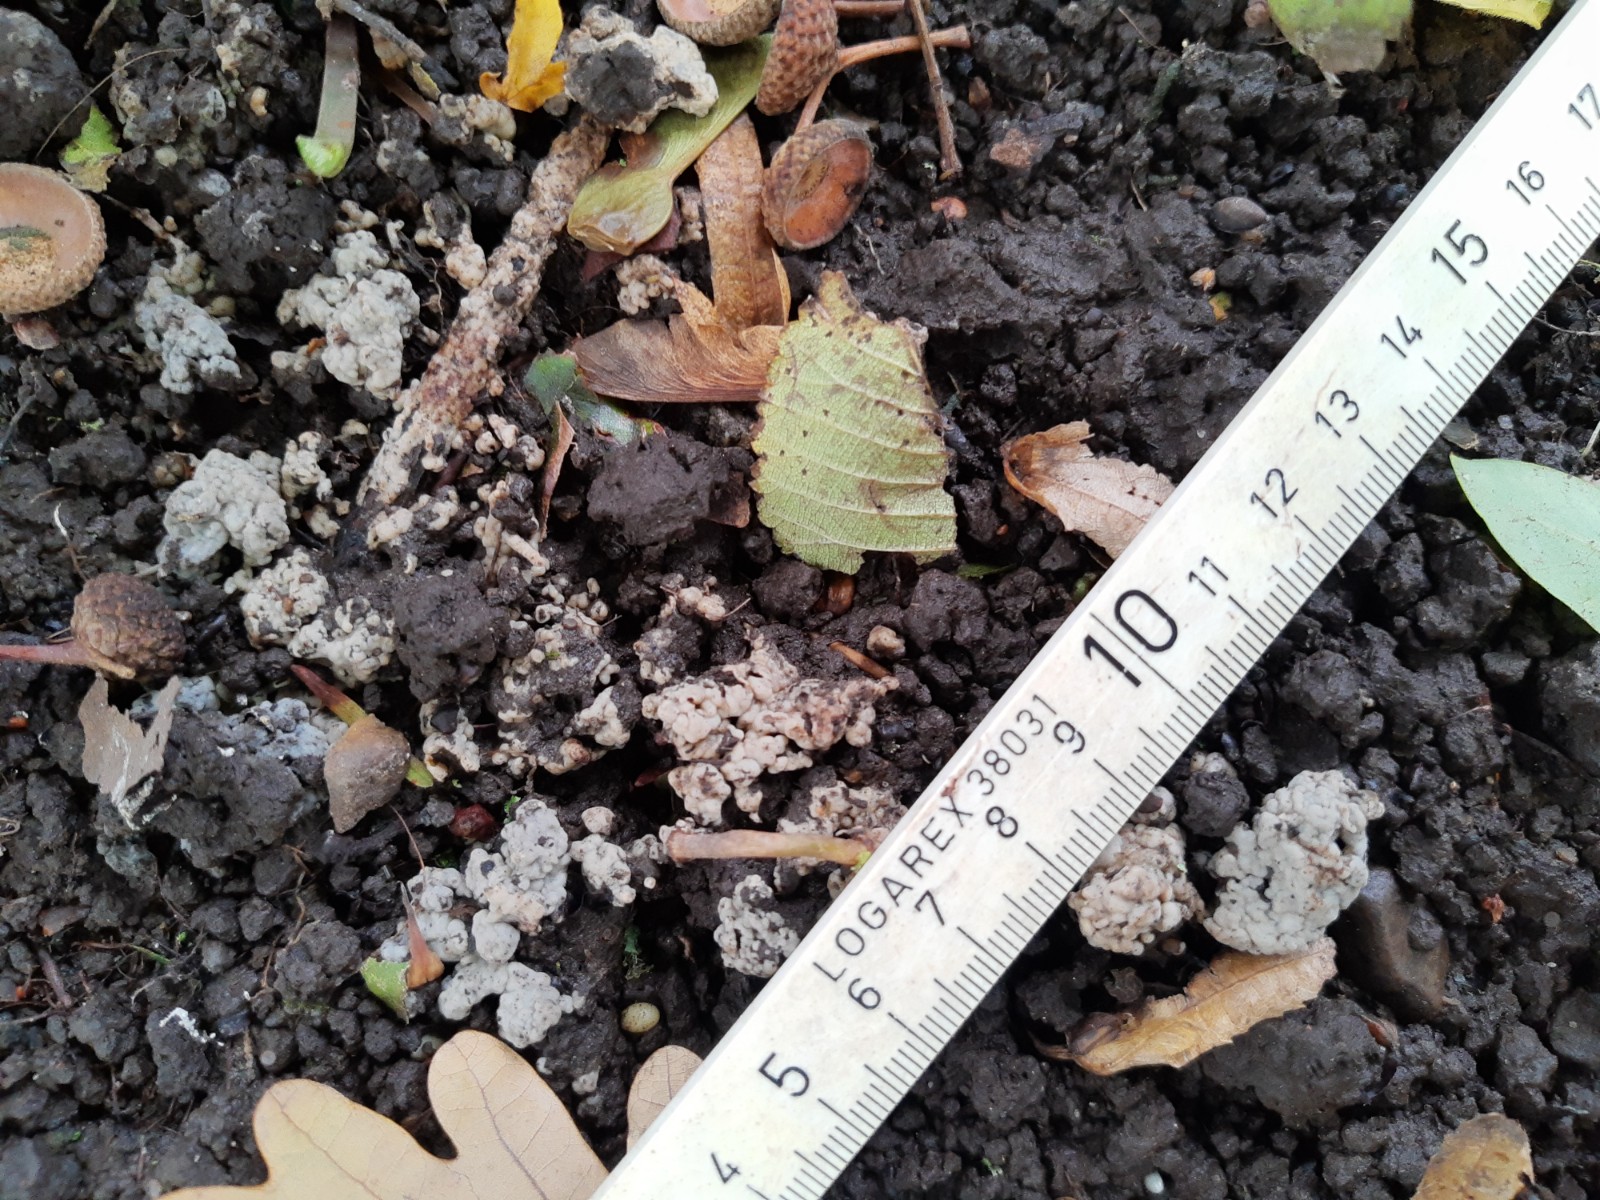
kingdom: Fungi
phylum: Basidiomycota
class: Agaricomycetes
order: Sebacinales
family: Sebacinaceae
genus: Sebacina
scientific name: Sebacina
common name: bævretalg
